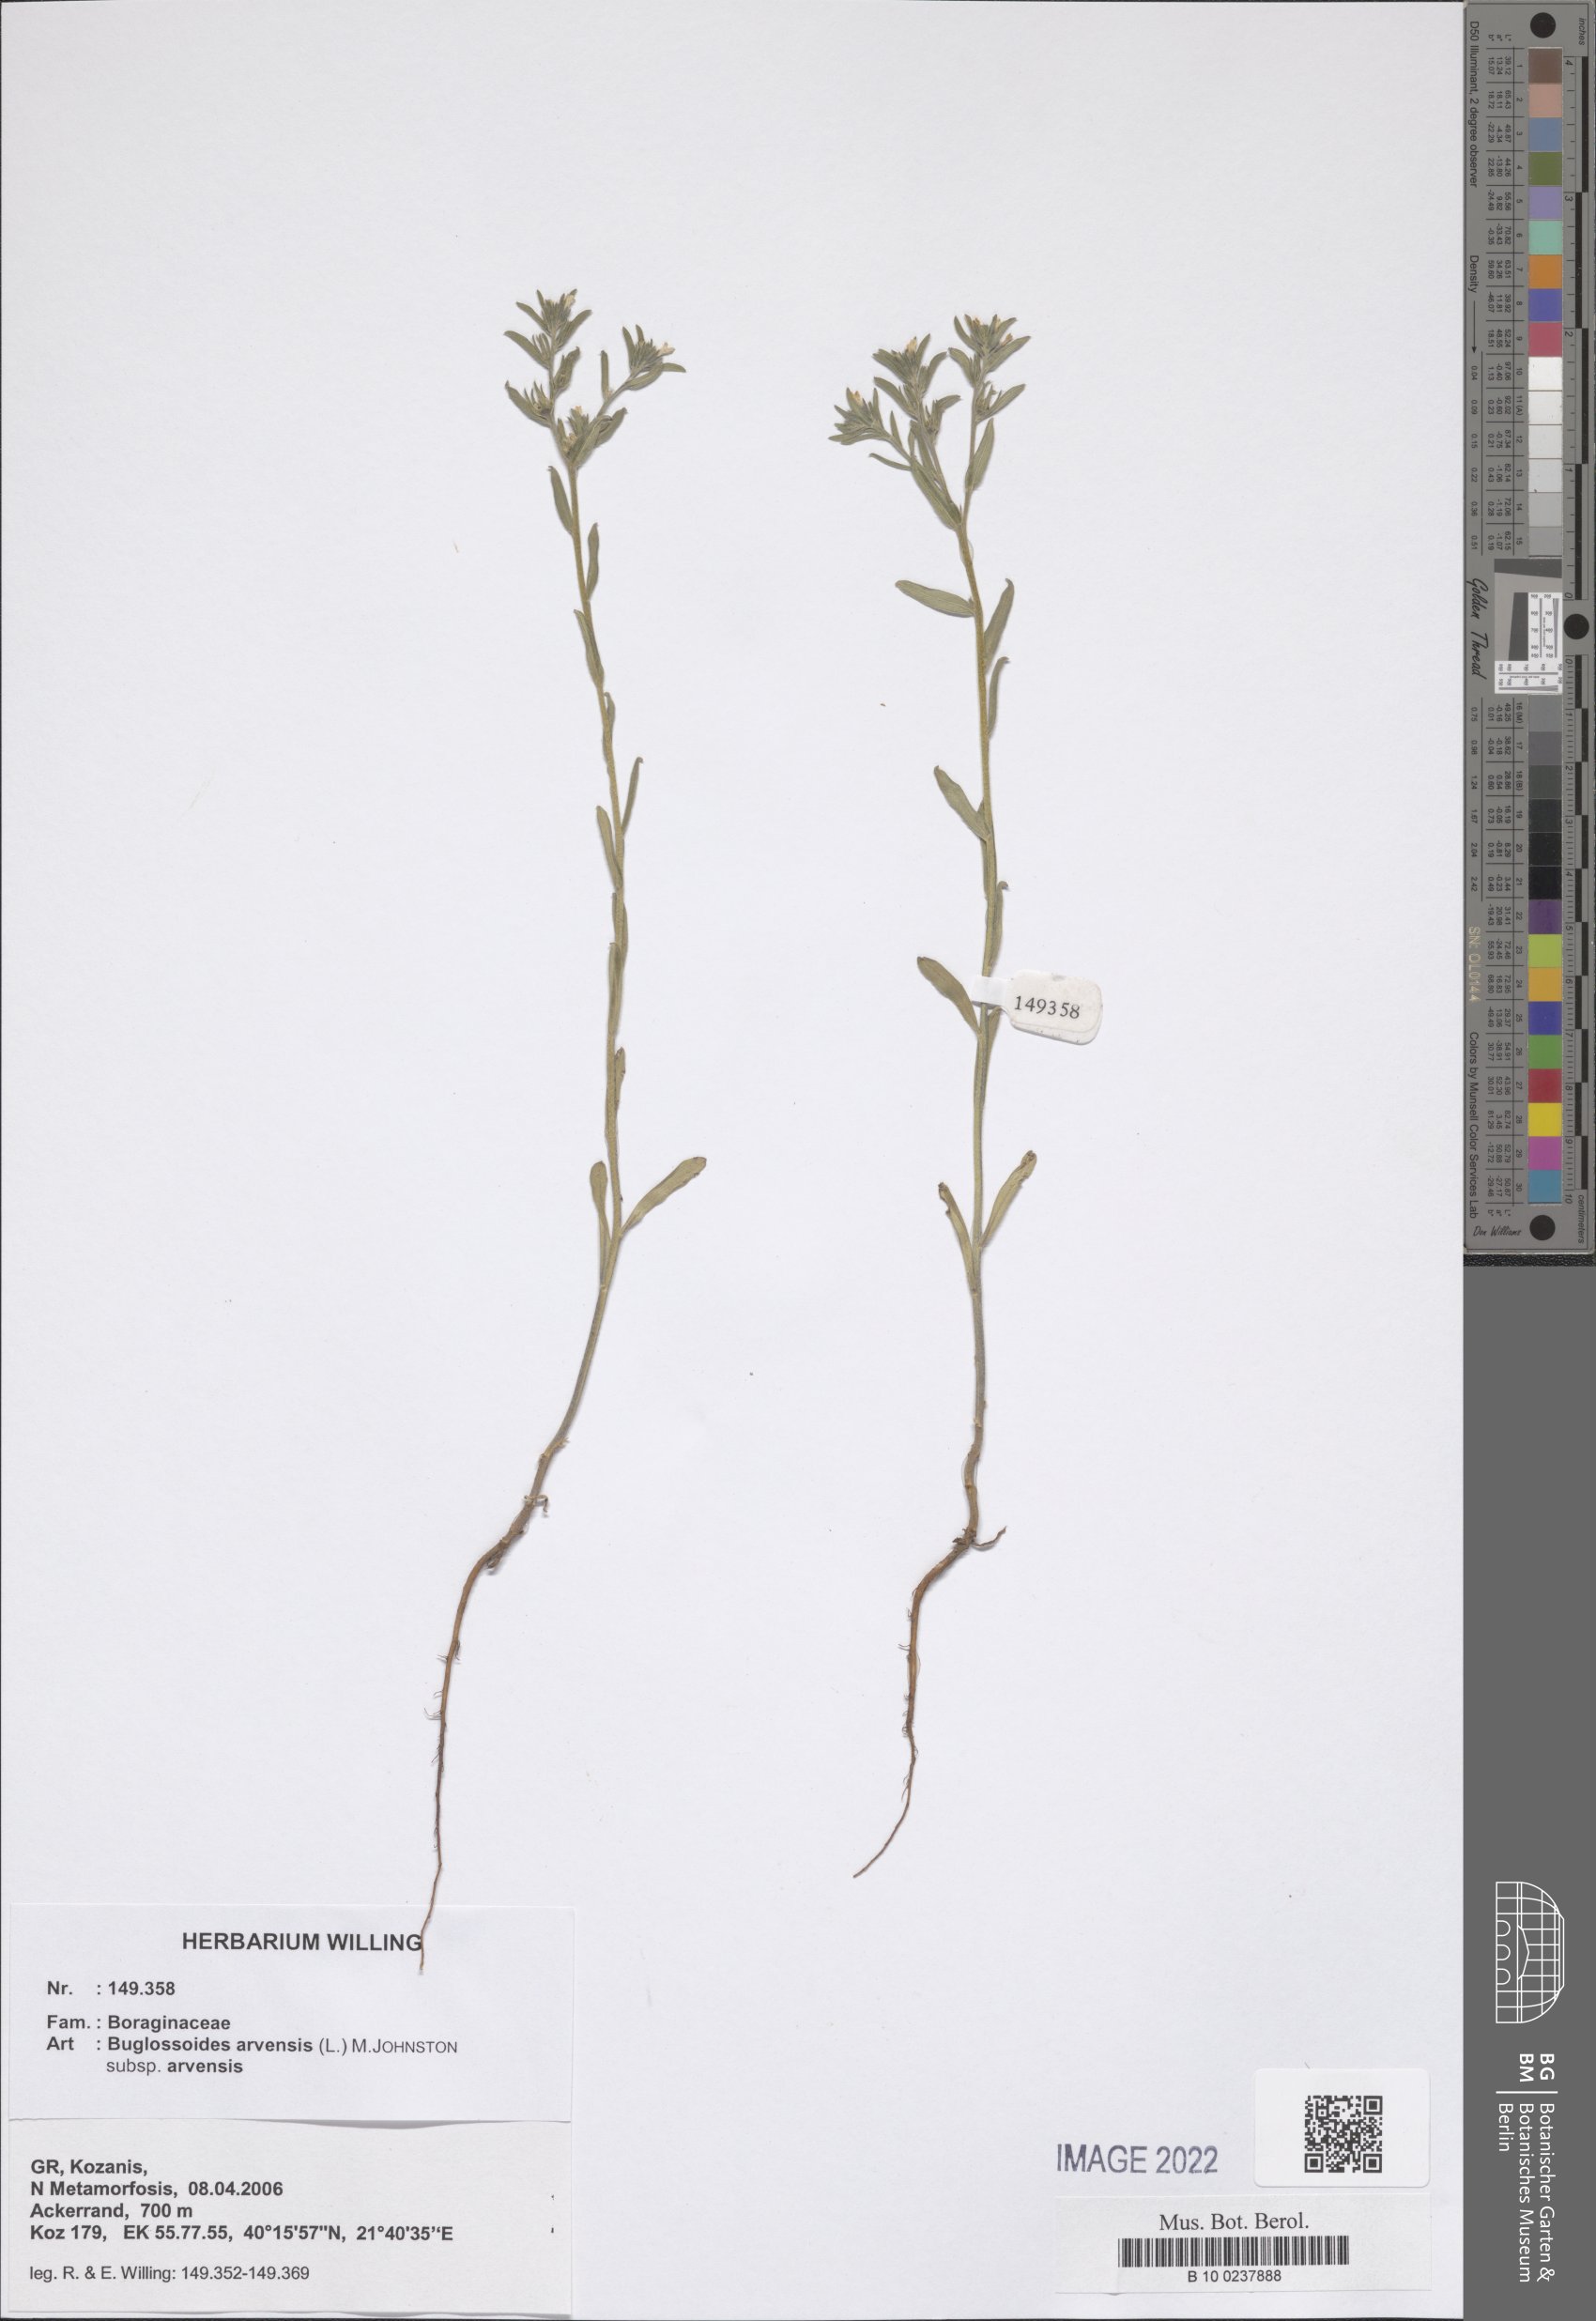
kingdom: Plantae
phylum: Tracheophyta
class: Magnoliopsida
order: Boraginales
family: Boraginaceae
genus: Buglossoides
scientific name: Buglossoides arvensis
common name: Corn gromwell
